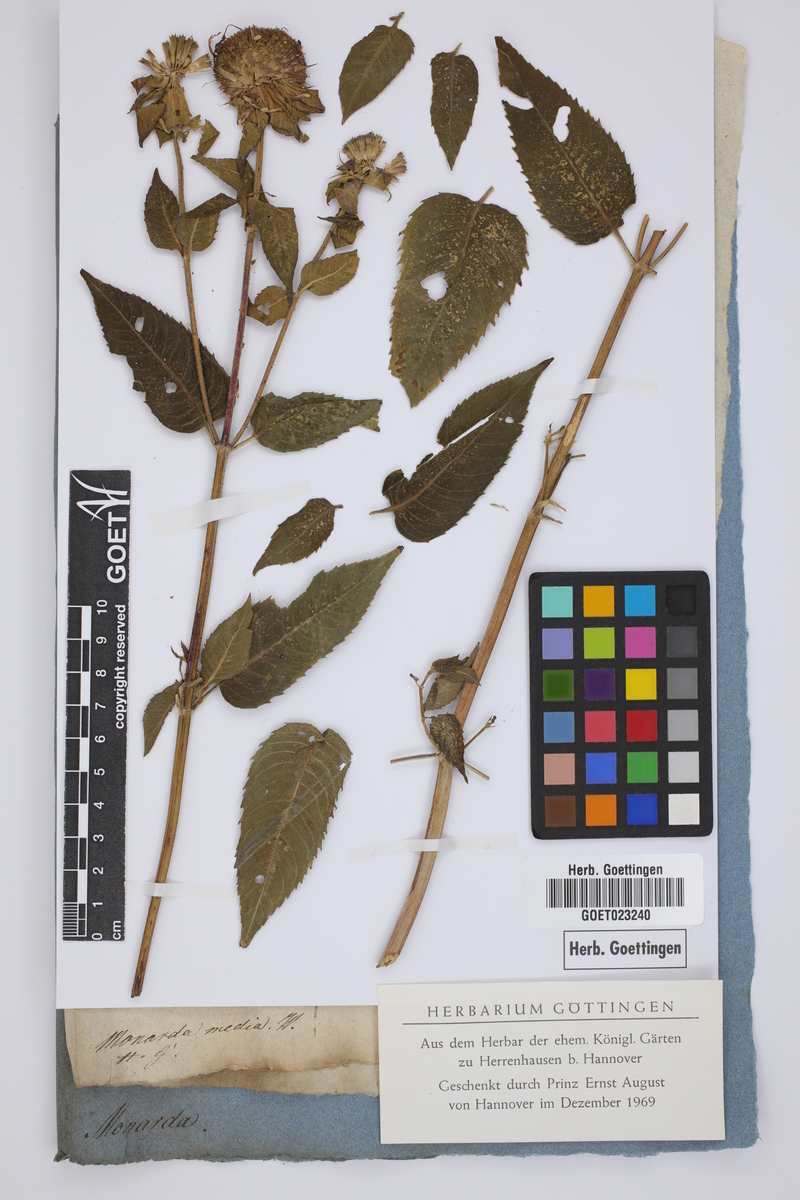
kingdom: Plantae
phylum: Tracheophyta
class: Magnoliopsida
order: Lamiales
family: Lamiaceae
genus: Monarda
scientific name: Monarda media
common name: Purple bergamot
